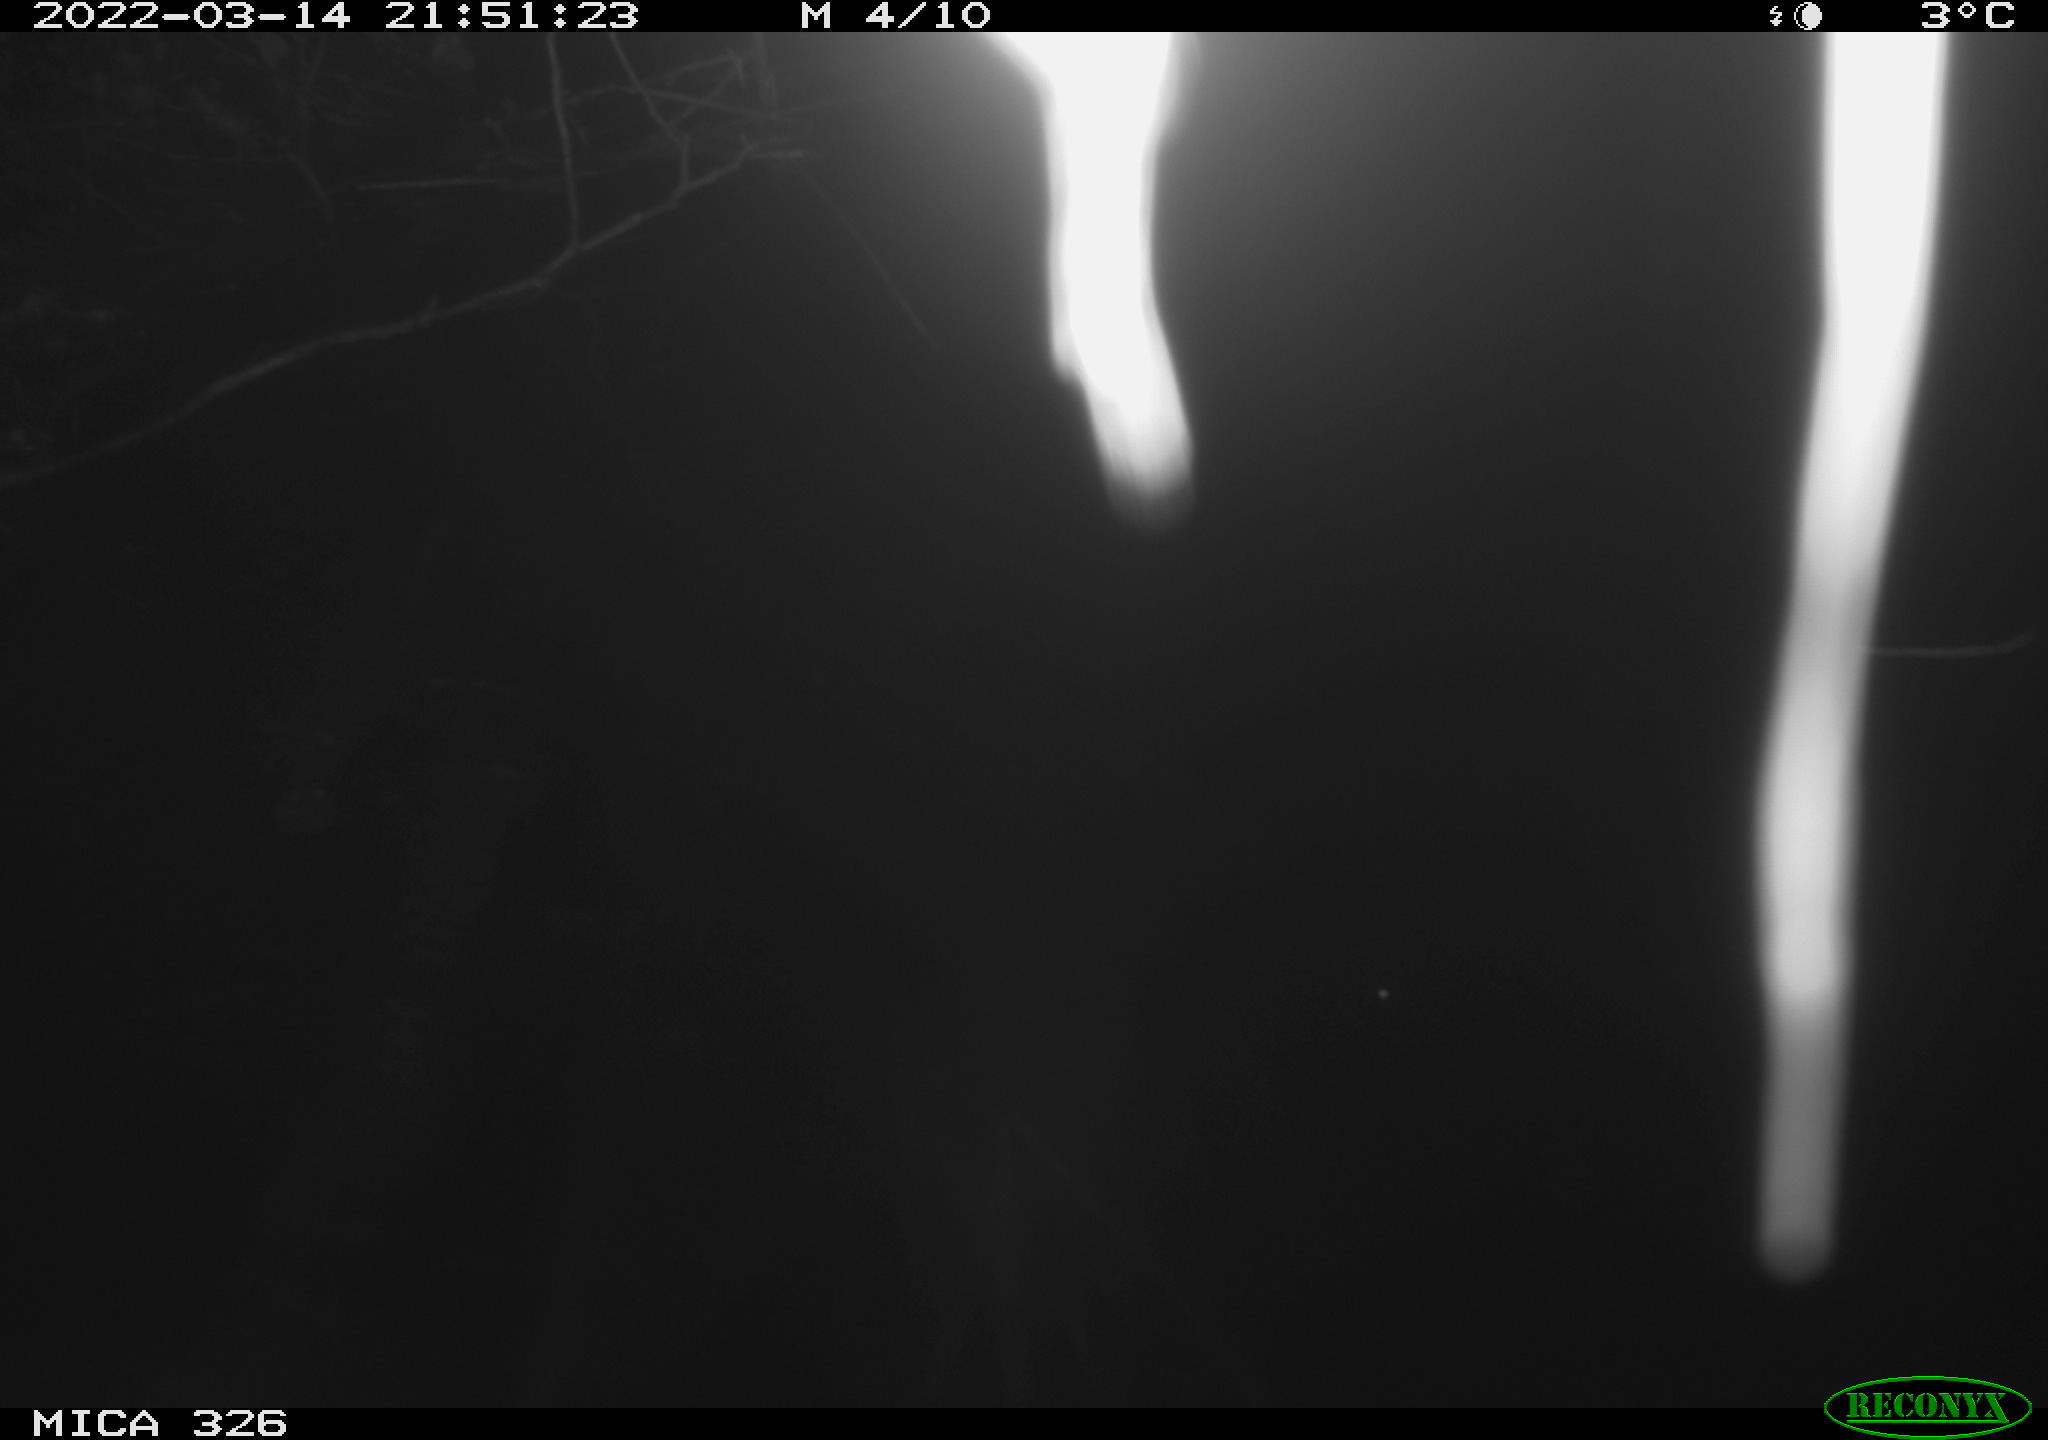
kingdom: Animalia
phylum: Chordata
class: Mammalia
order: Rodentia
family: Muridae
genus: Rattus
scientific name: Rattus norvegicus
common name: Brown rat
